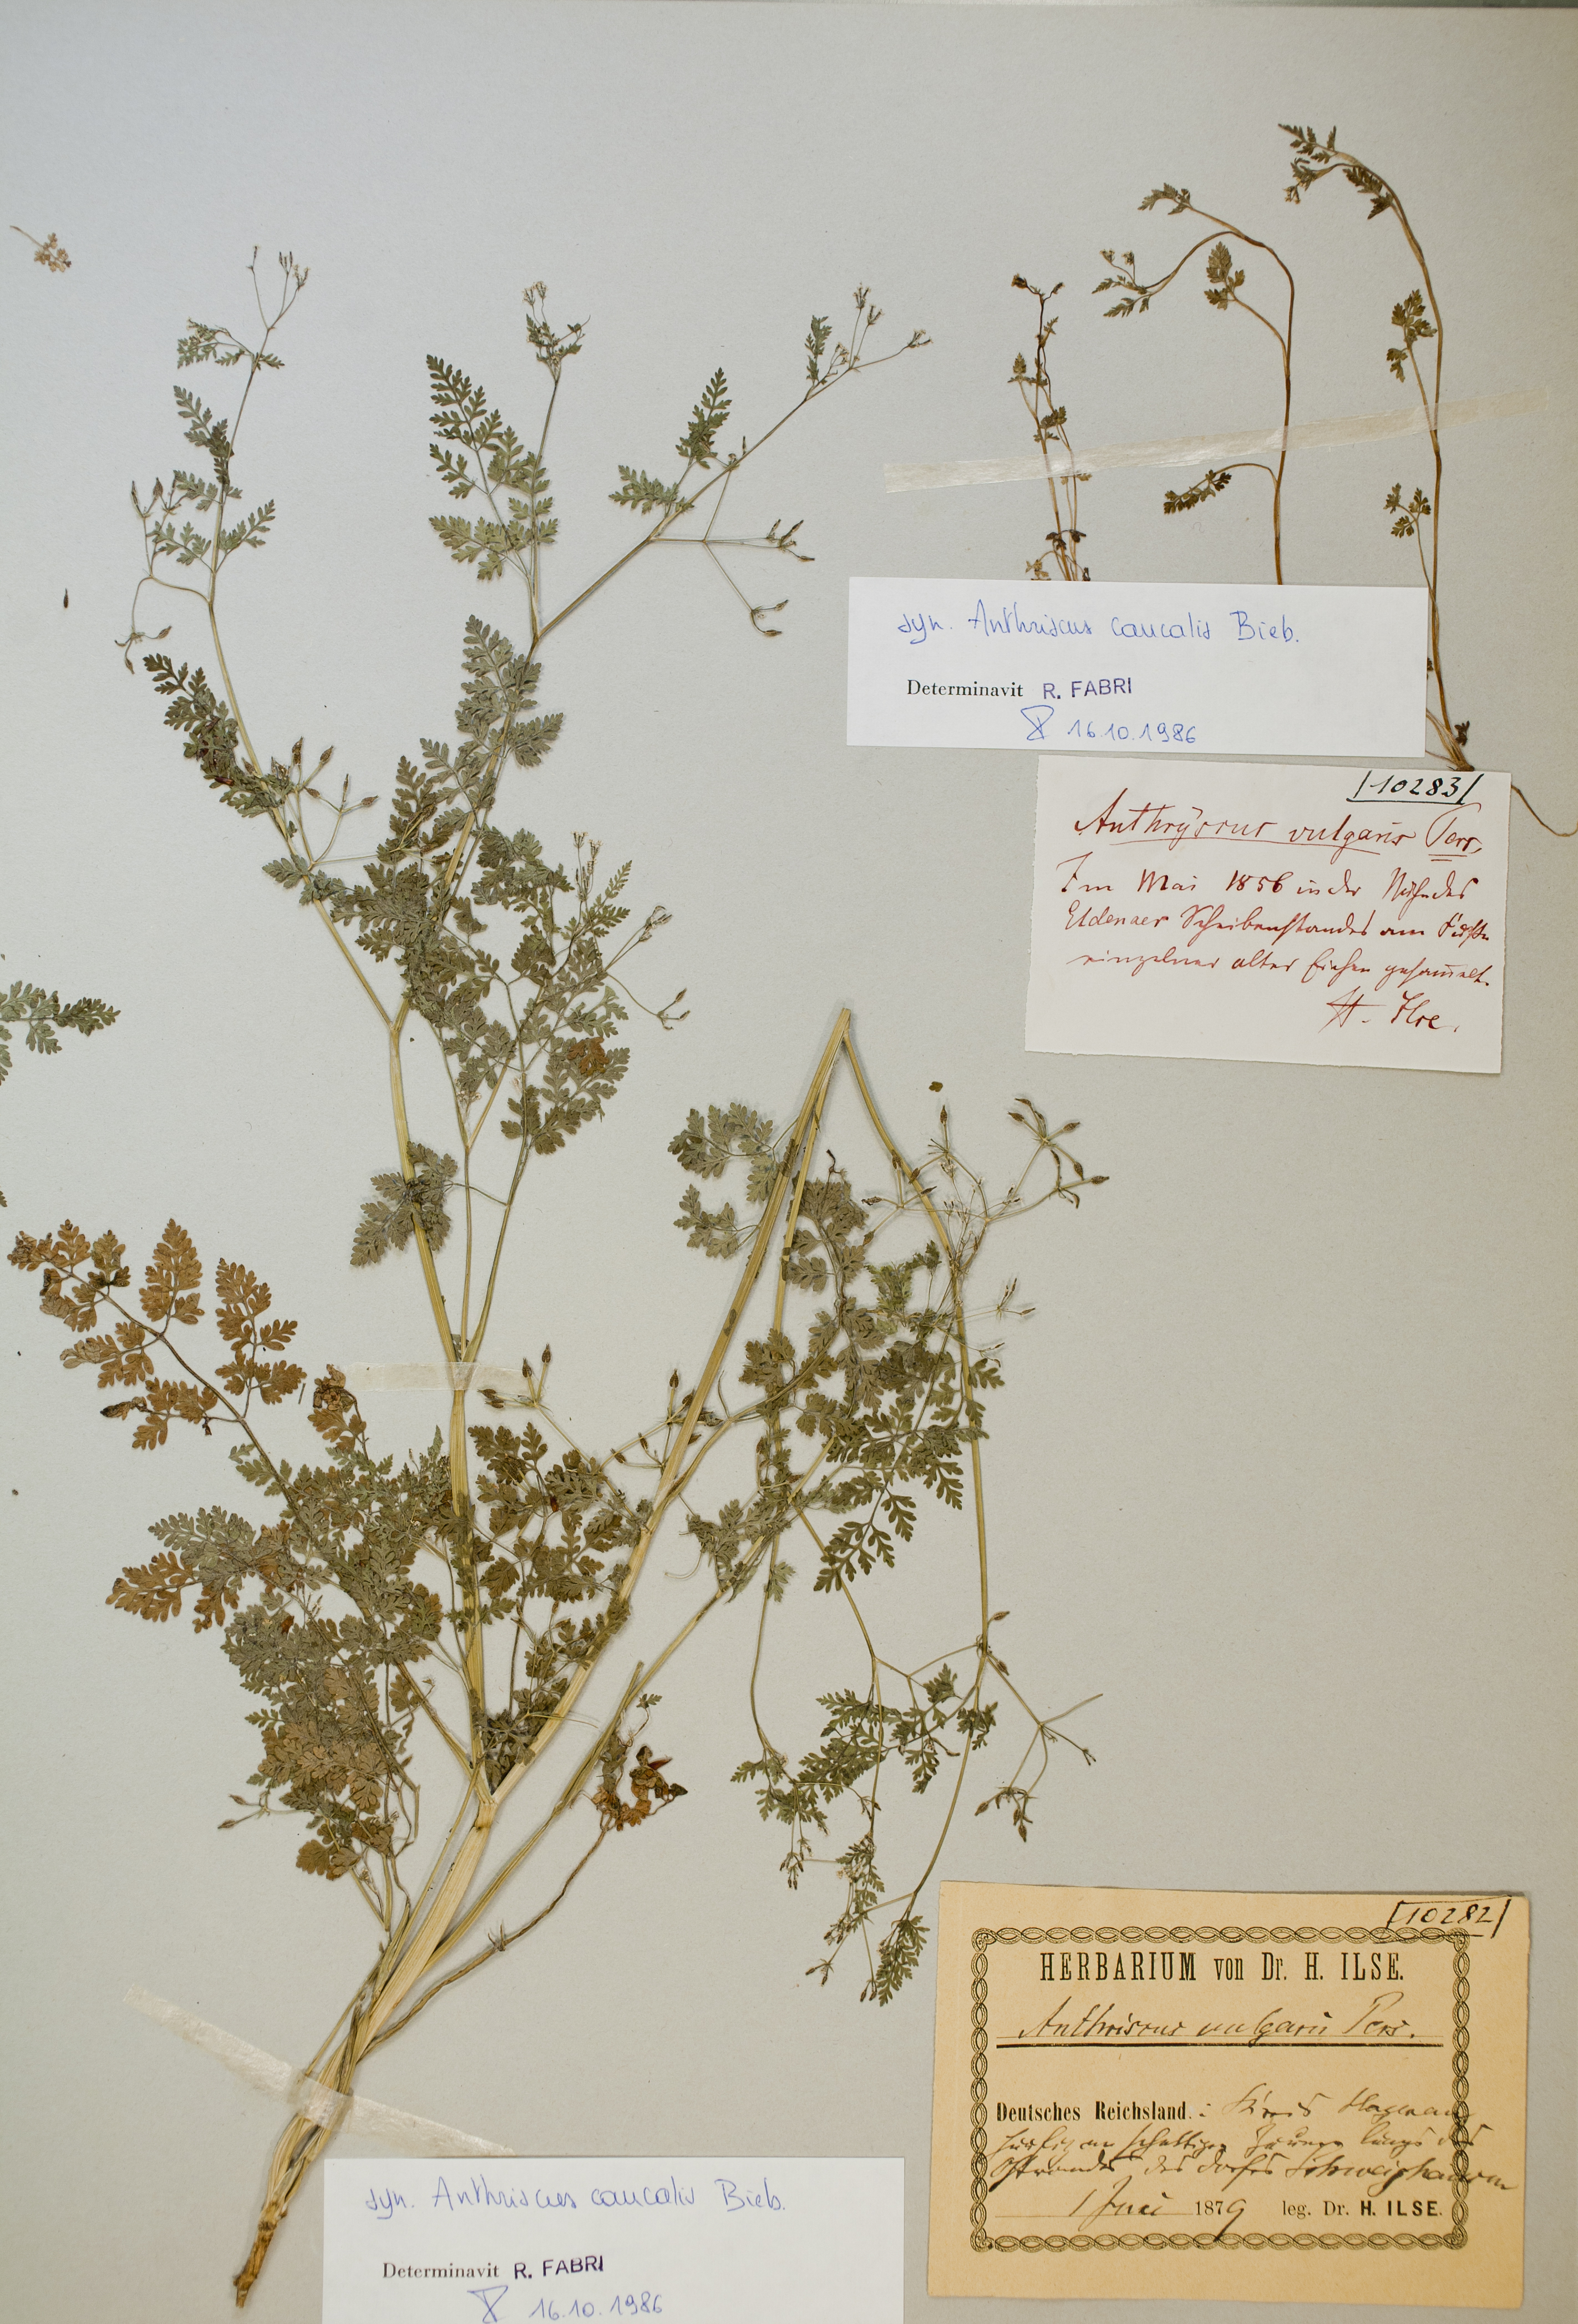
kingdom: Plantae
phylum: Tracheophyta
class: Magnoliopsida
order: Apiales
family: Apiaceae
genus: Anthriscus
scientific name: Anthriscus caucalis
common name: Bur chervil
